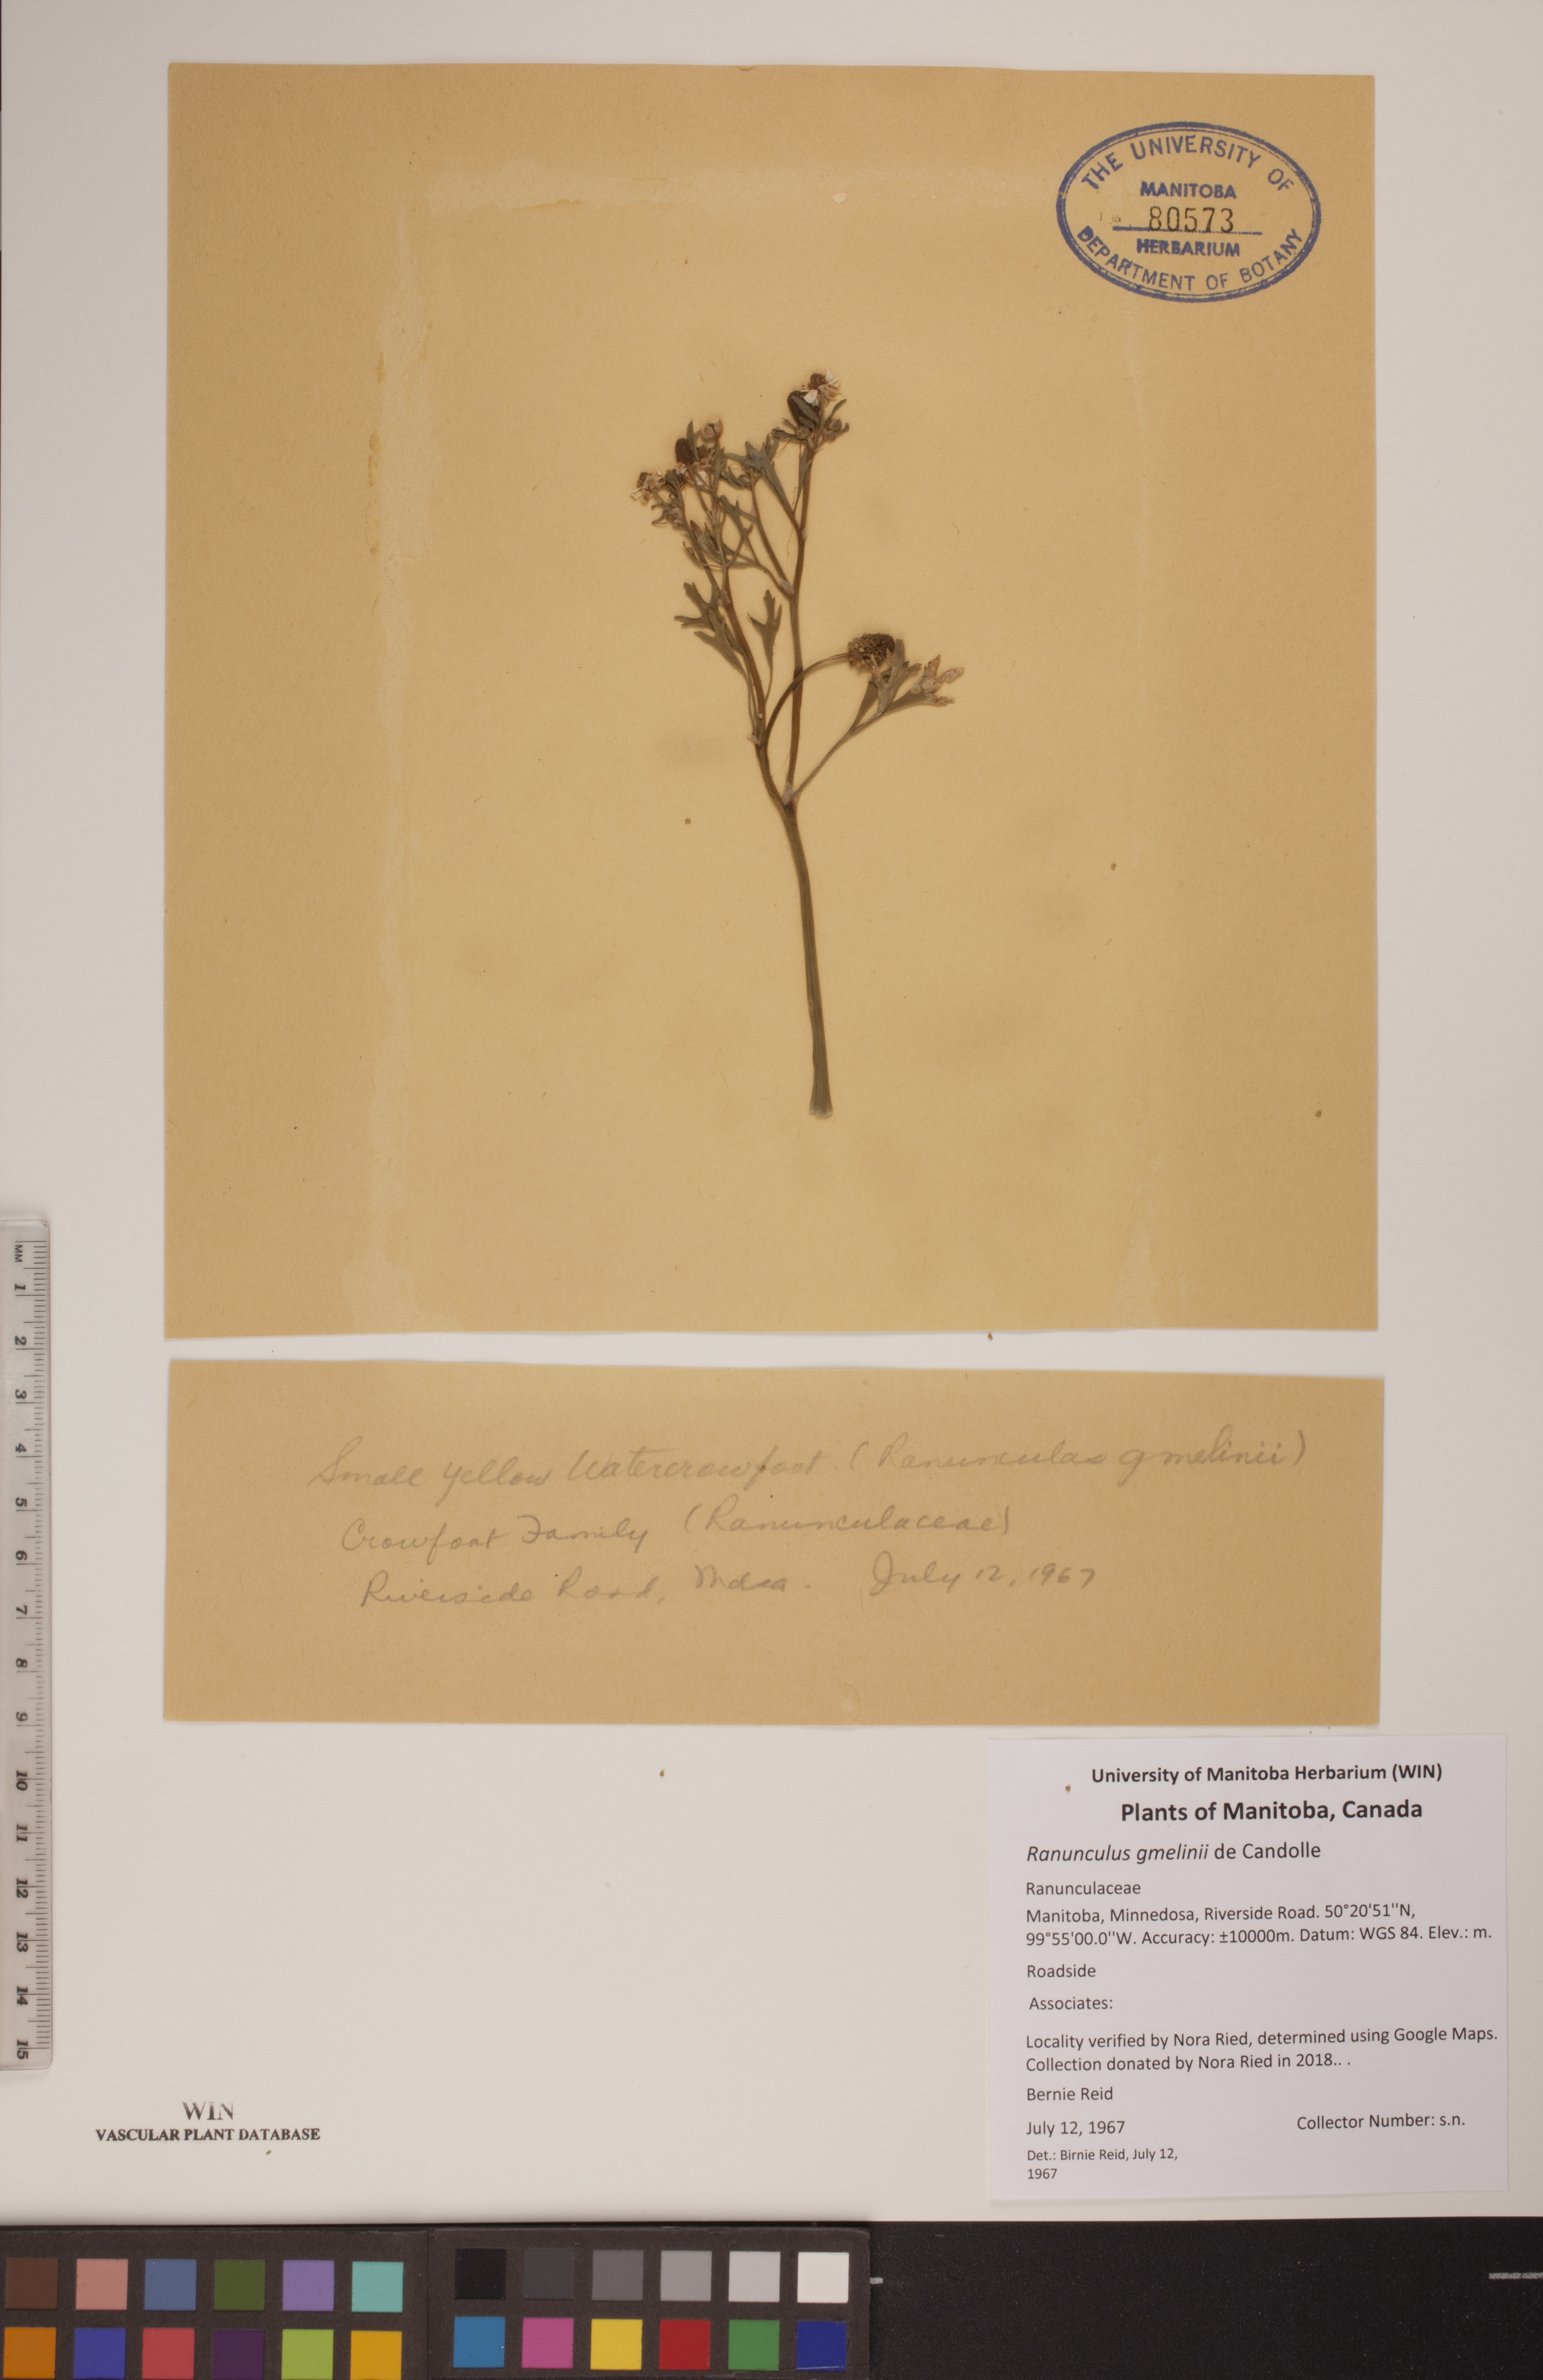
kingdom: Plantae
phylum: Tracheophyta
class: Magnoliopsida
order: Ranunculales
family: Ranunculaceae
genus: Ranunculus
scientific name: Ranunculus gmelinii
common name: Gmelin's buttercup
